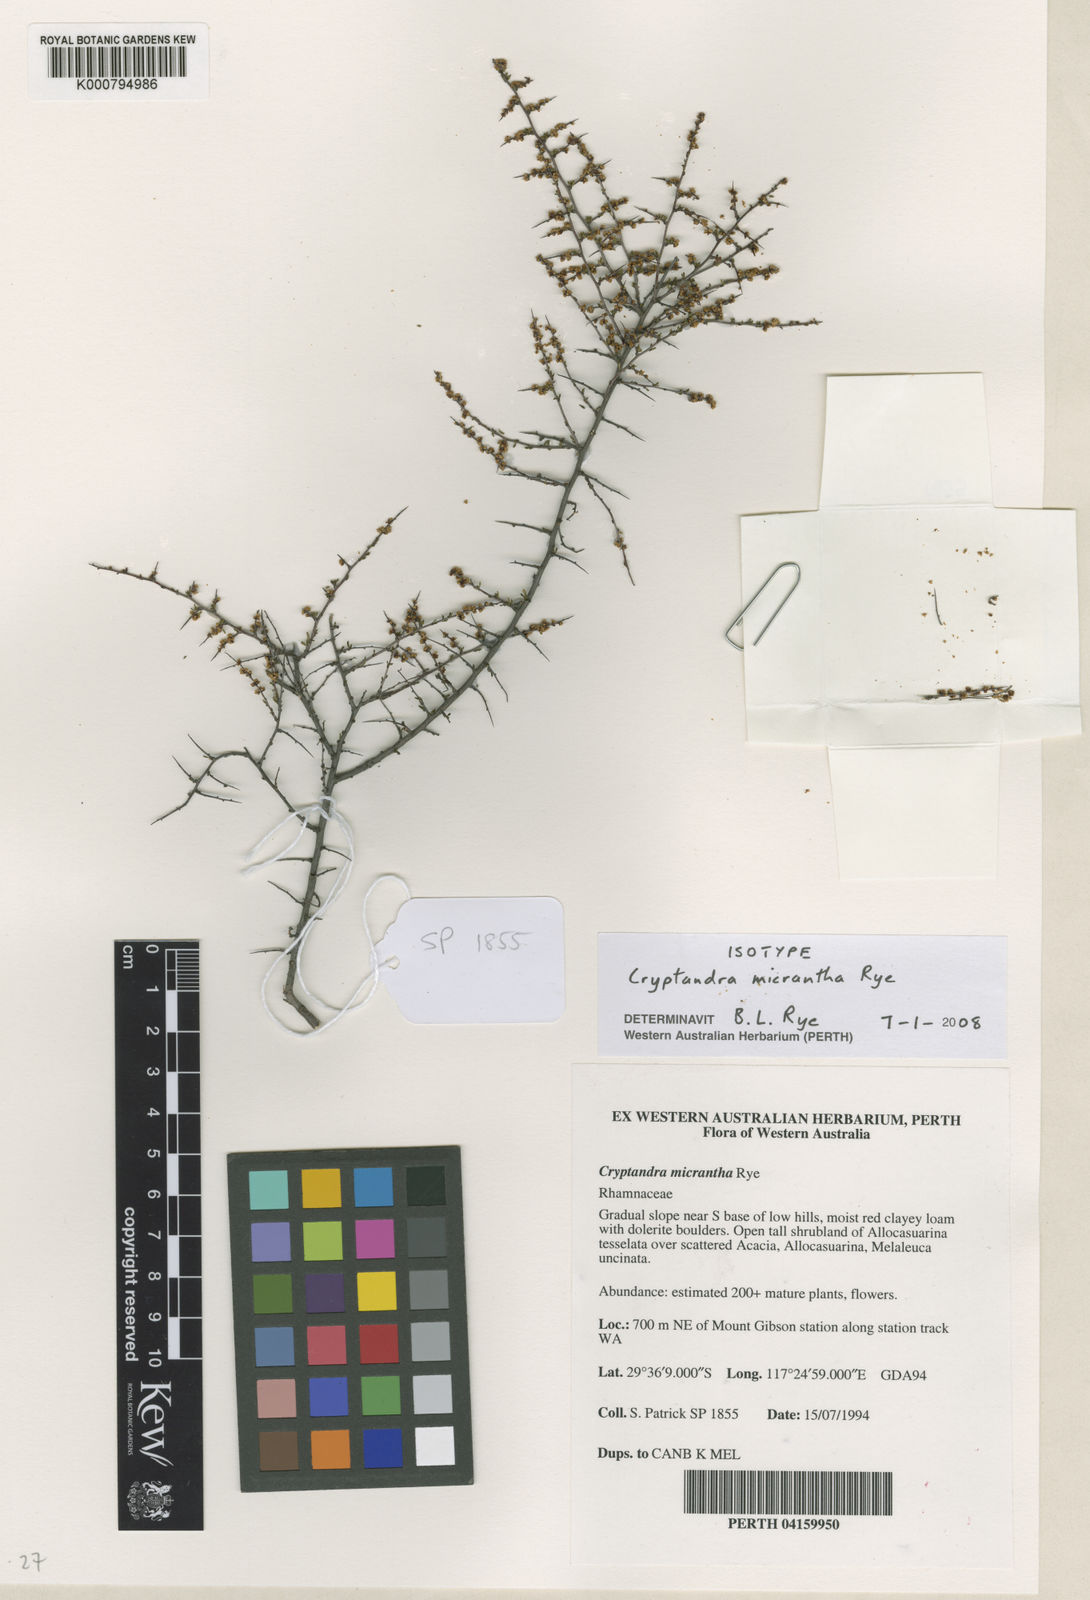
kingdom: Plantae
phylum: Tracheophyta
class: Magnoliopsida
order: Rosales
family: Rhamnaceae
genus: Cryptandra
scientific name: Cryptandra micrantha
